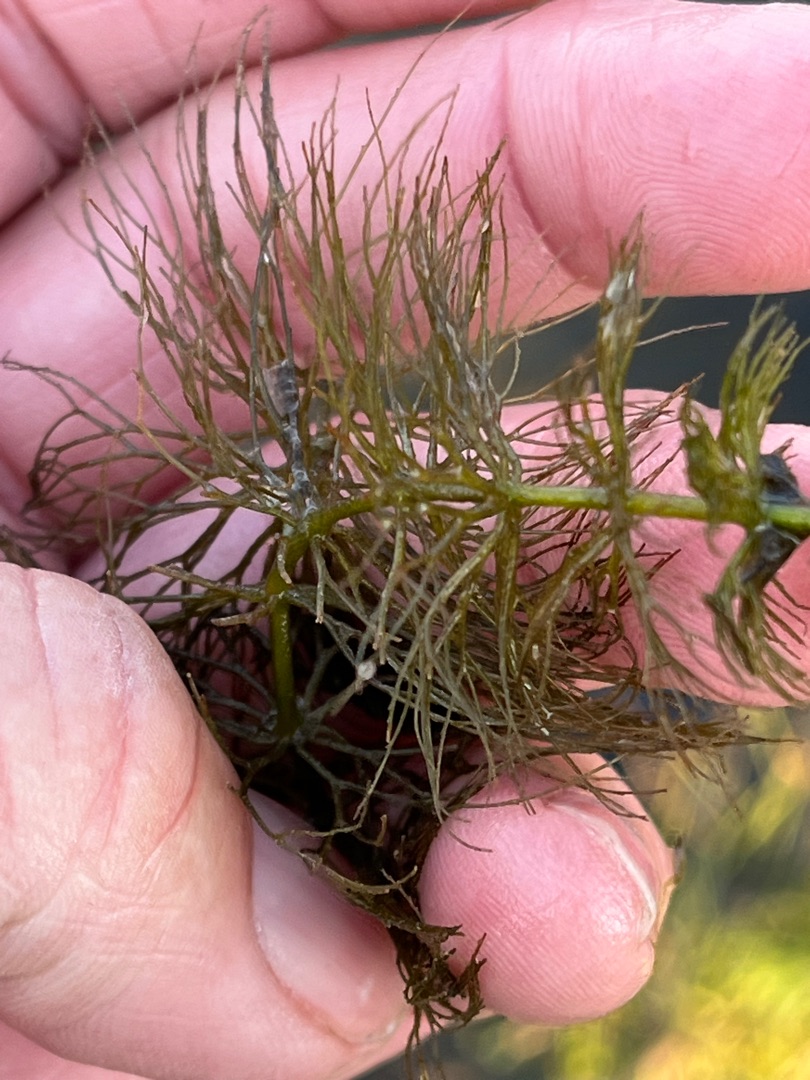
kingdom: Plantae
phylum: Tracheophyta
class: Magnoliopsida
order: Ceratophyllales
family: Ceratophyllaceae
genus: Ceratophyllum
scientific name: Ceratophyllum submersum
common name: Tornløs hornblad
